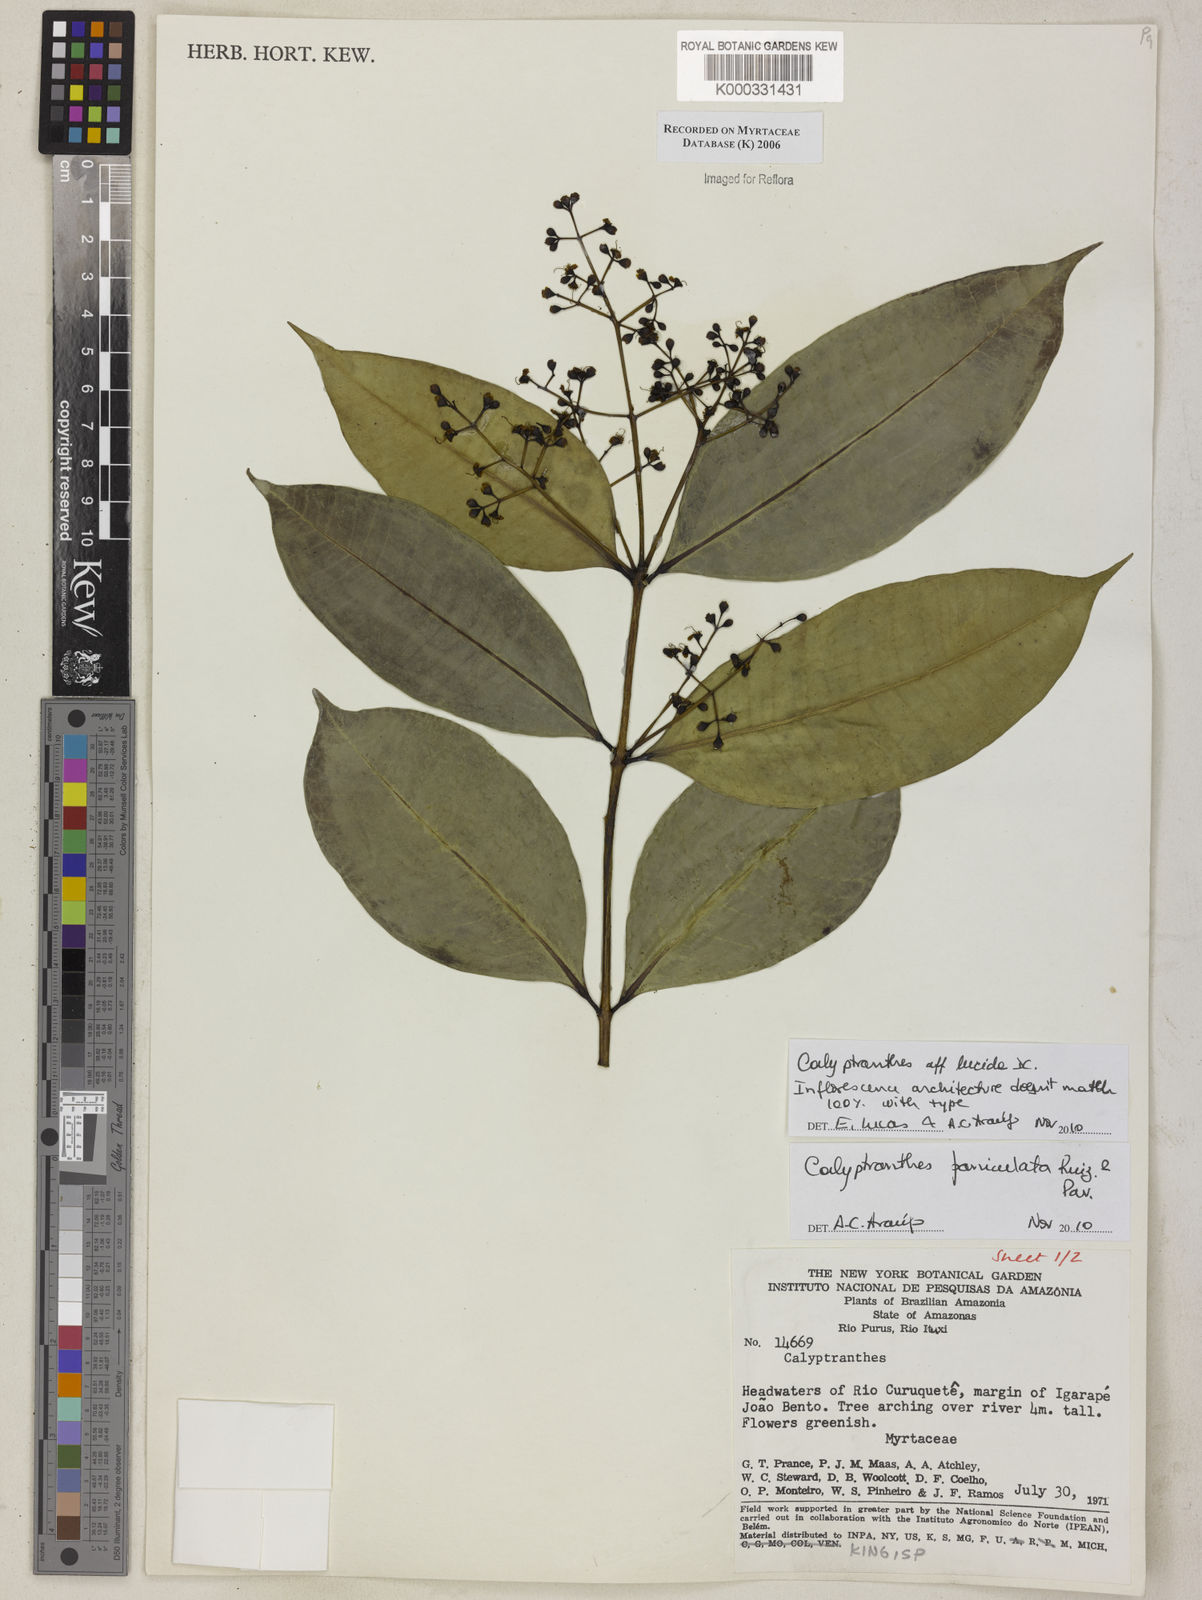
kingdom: Plantae
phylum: Tracheophyta
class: Magnoliopsida
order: Myrtales
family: Myrtaceae
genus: Calyptranthes
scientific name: Calyptranthes
